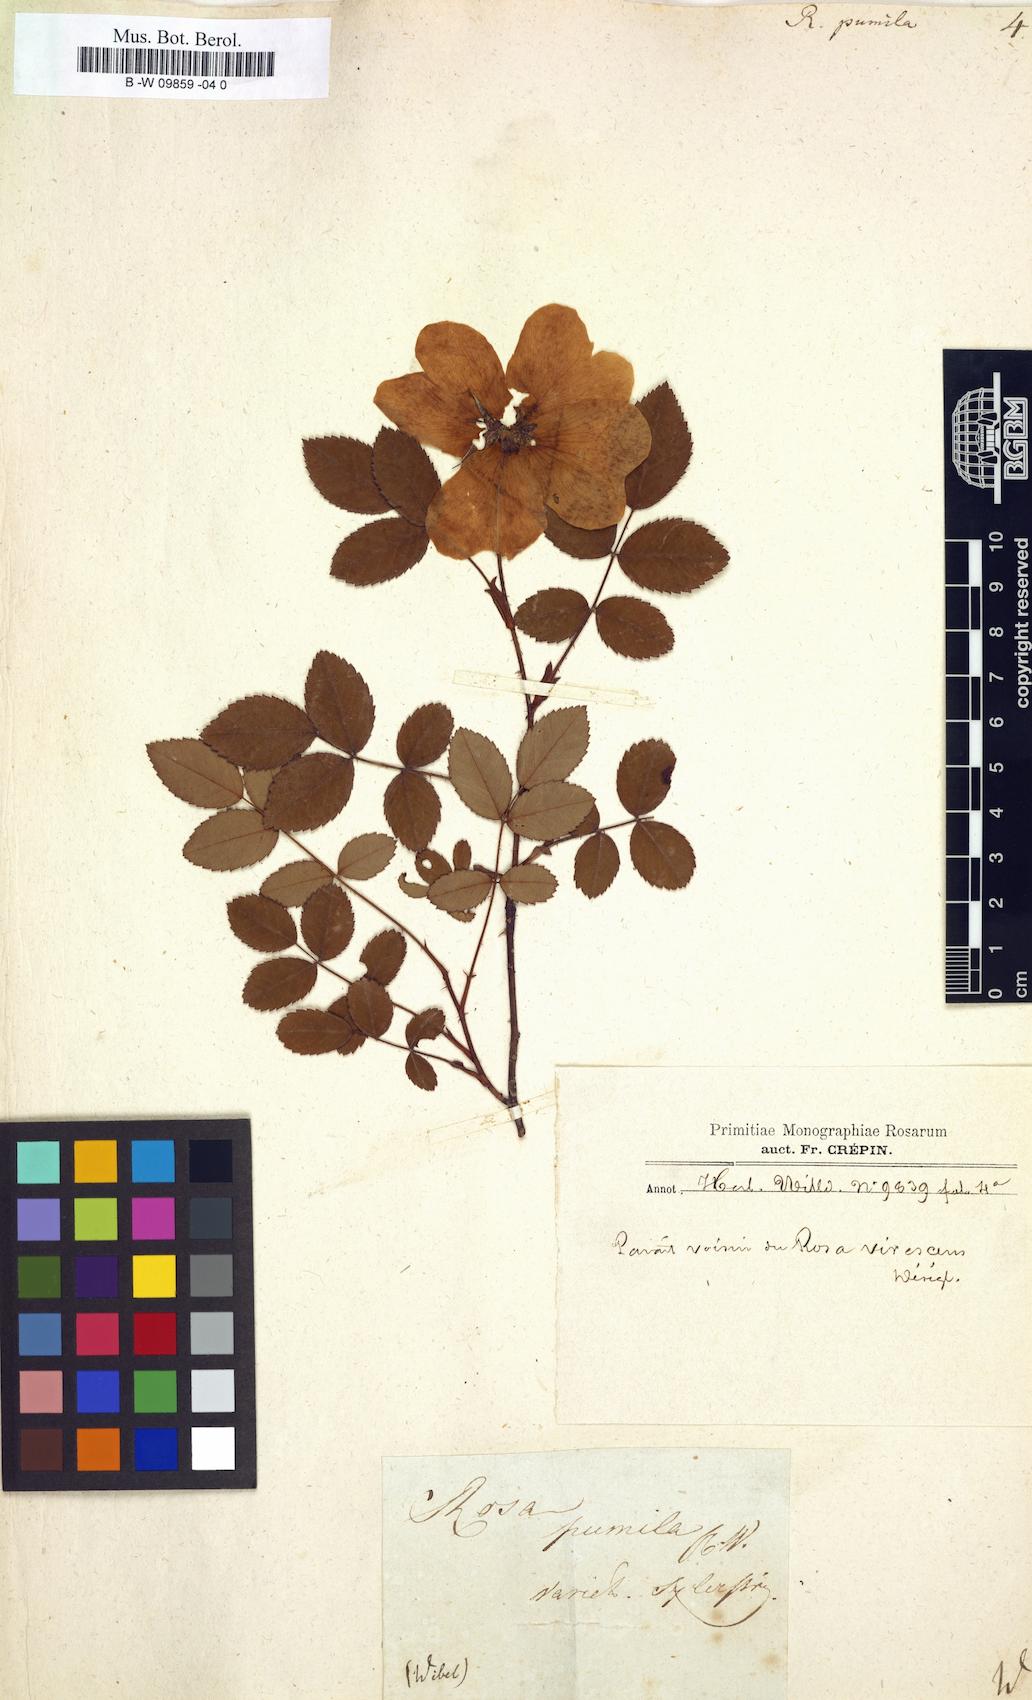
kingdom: Plantae
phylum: Tracheophyta
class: Magnoliopsida
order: Rosales
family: Rosaceae
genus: Rosa
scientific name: Rosa gallica
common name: French rose
